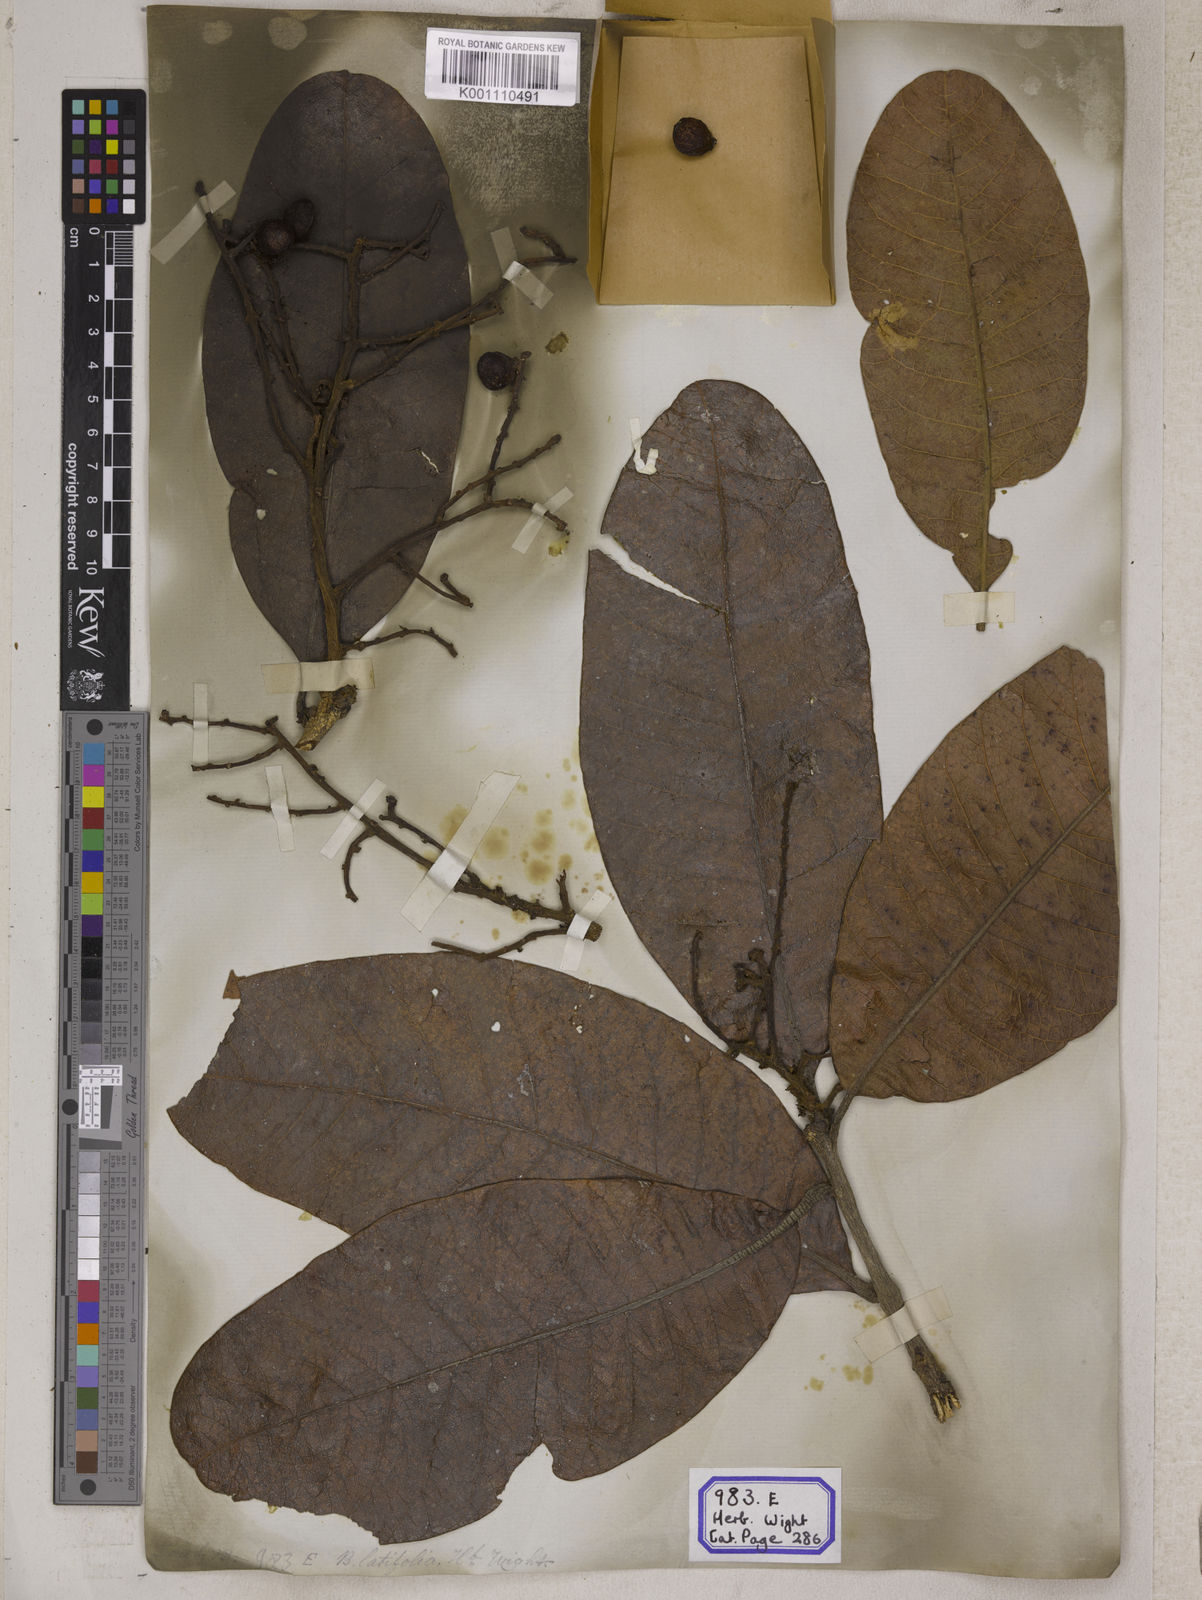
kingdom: Plantae
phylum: Tracheophyta
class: Magnoliopsida
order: Sapindales
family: Anacardiaceae
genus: Buchanania
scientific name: Buchanania cochinchinensis
